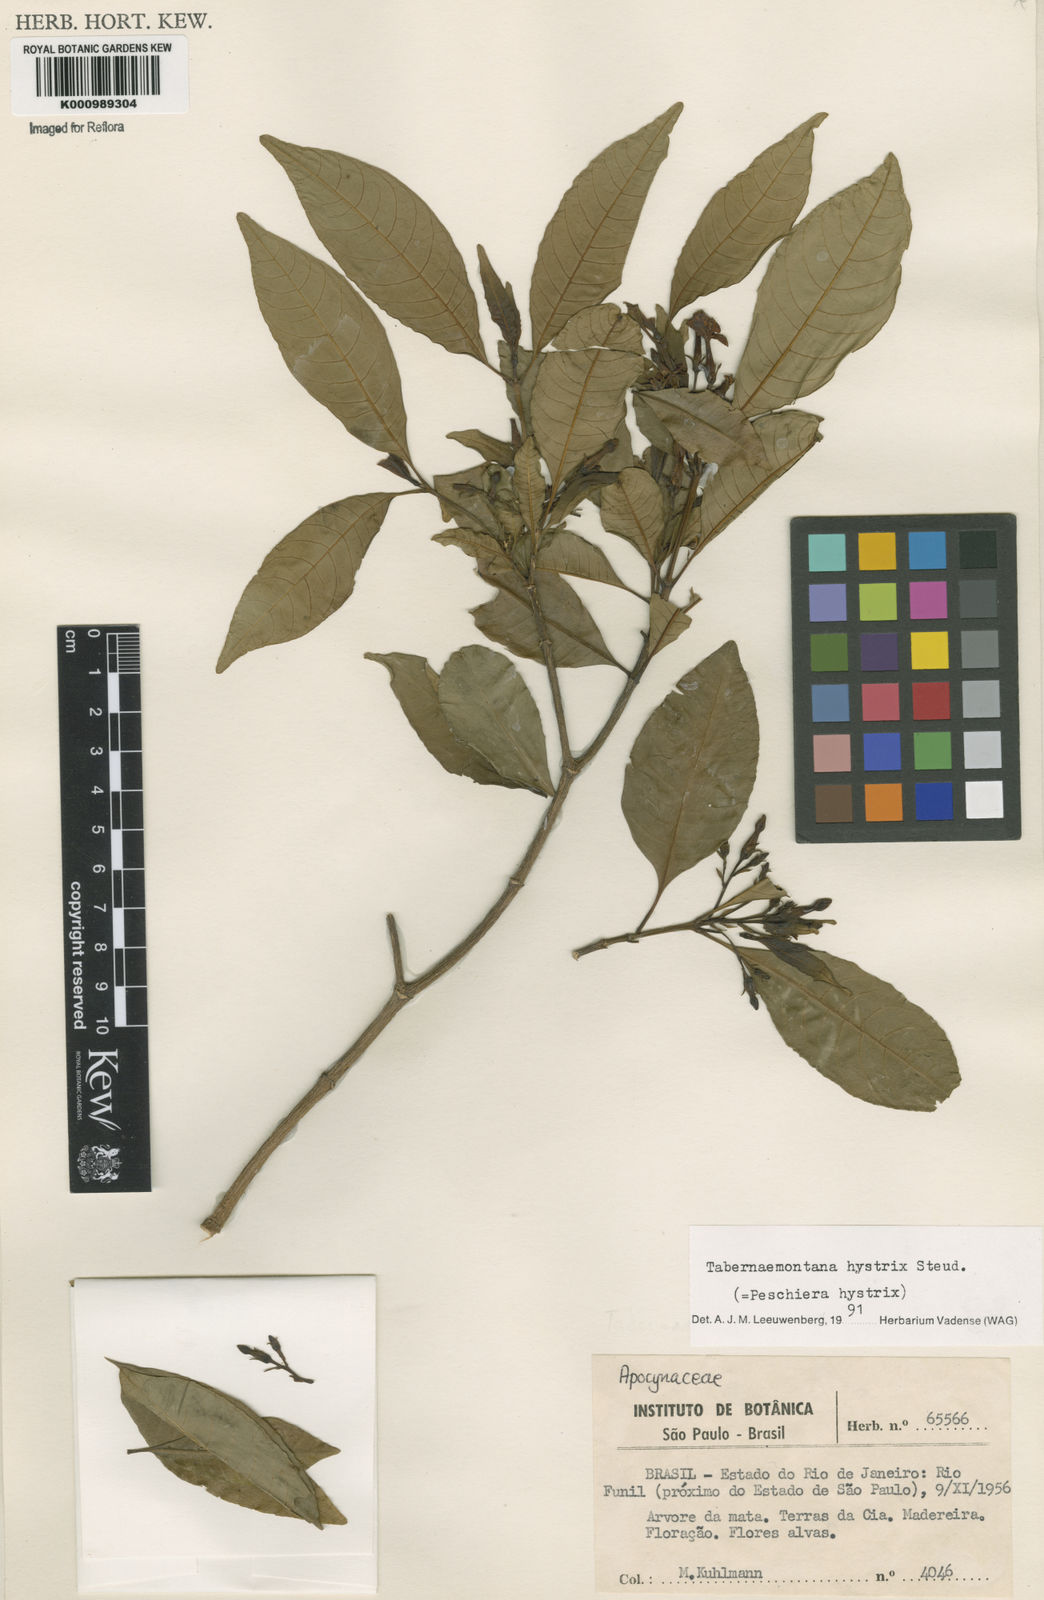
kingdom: Plantae
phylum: Tracheophyta
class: Magnoliopsida
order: Gentianales
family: Apocynaceae
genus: Tabernaemontana
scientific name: Tabernaemontana hystrix
